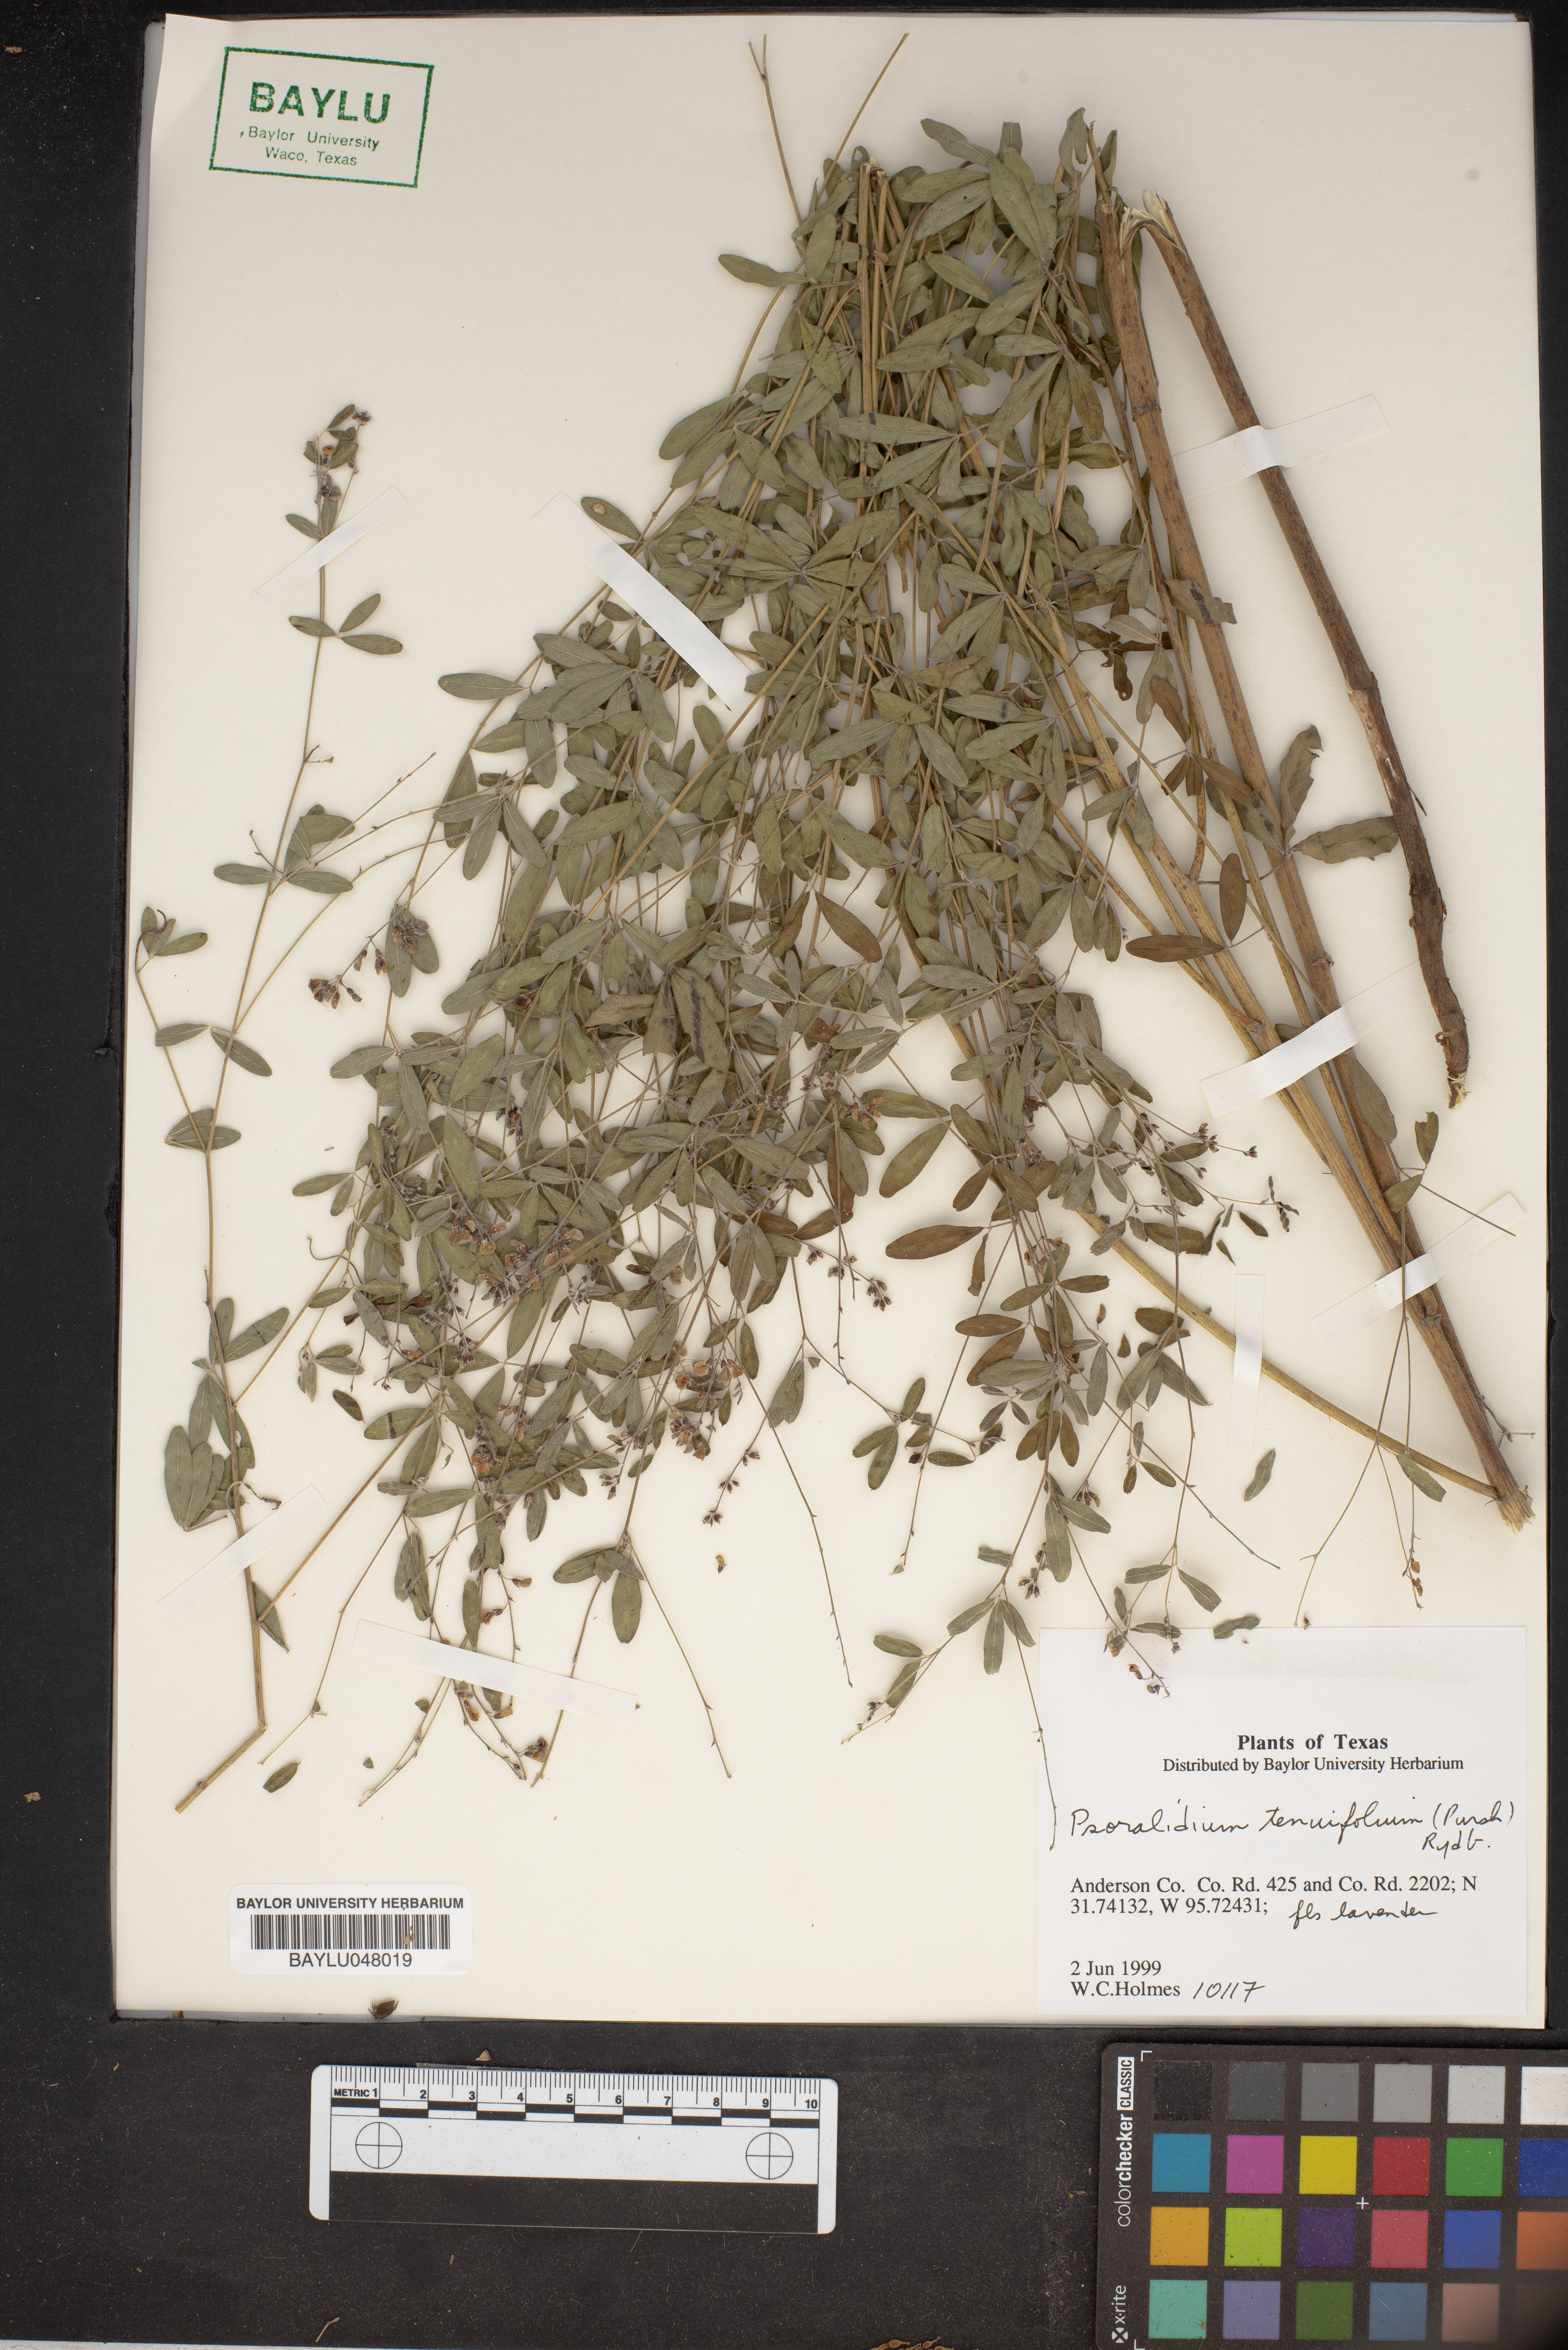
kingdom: Plantae
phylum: Tracheophyta
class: Magnoliopsida
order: Fabales
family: Fabaceae
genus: Pediomelum
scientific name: Pediomelum tenuiflorum
